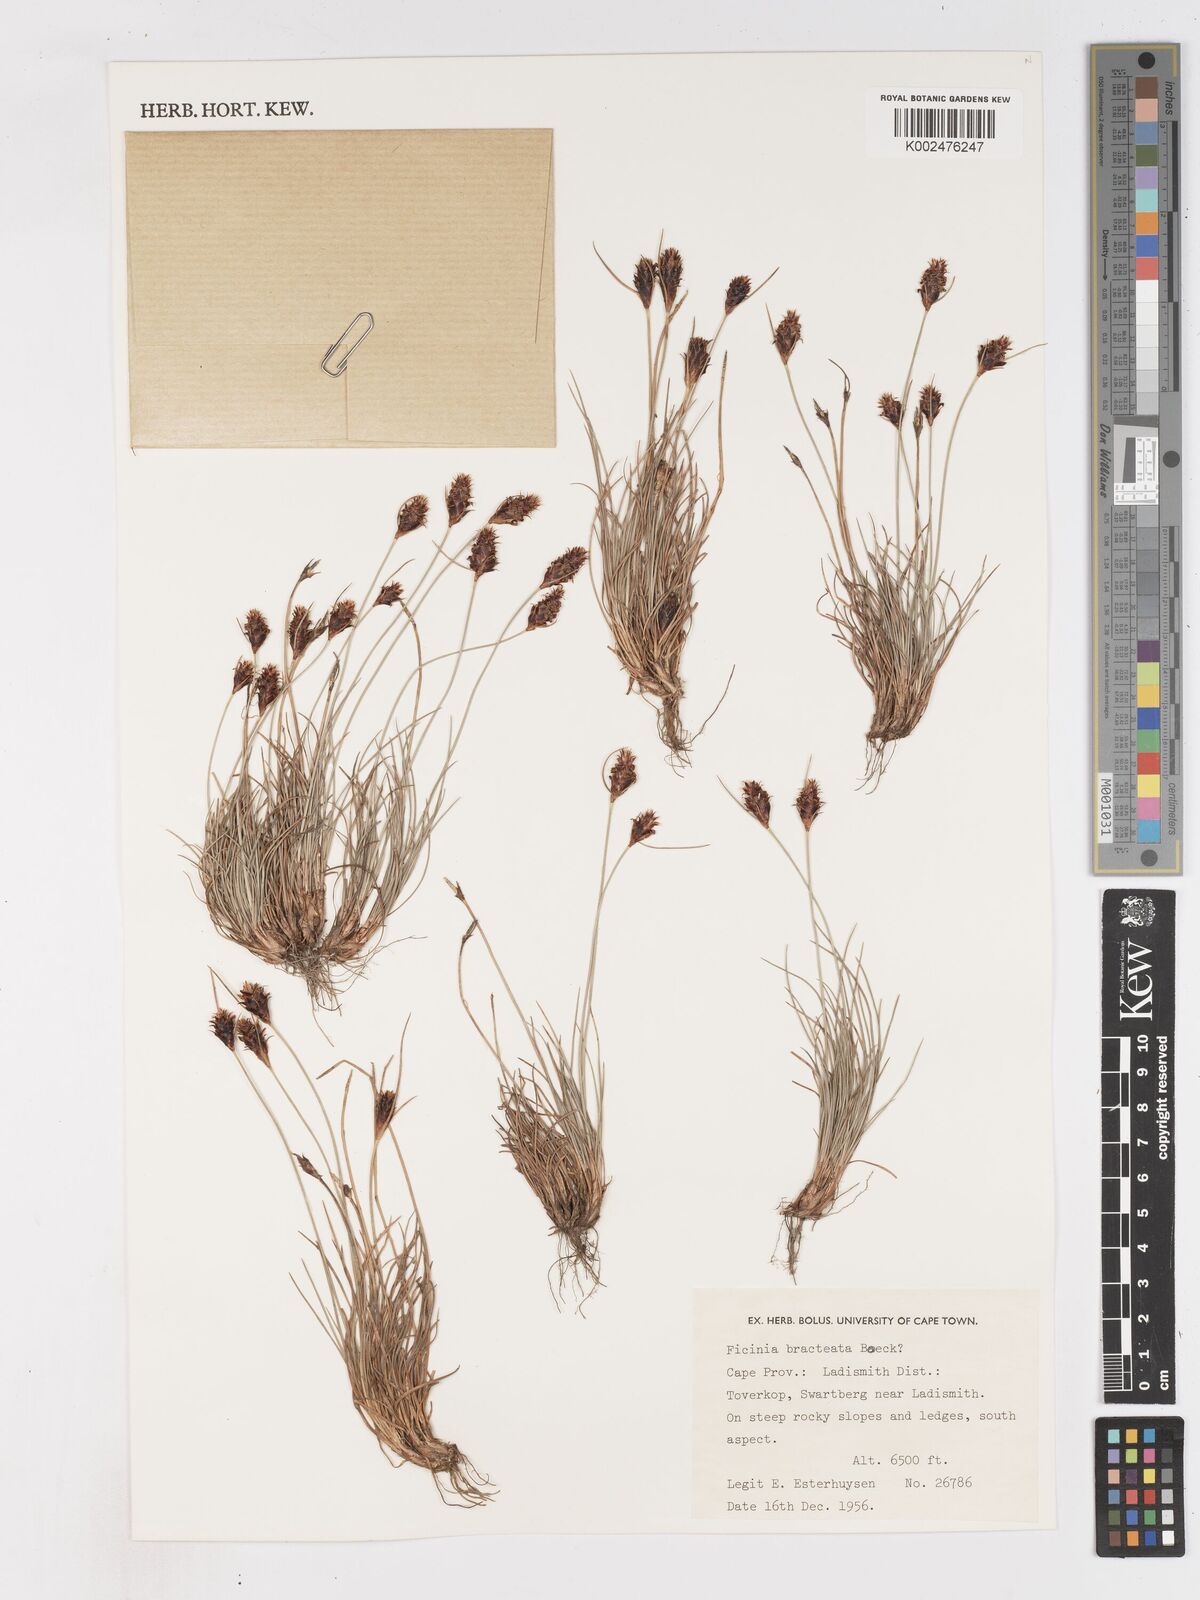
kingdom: Plantae
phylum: Tracheophyta
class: Liliopsida
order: Poales
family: Cyperaceae
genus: Ficinia
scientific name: Ficinia nigrescens
